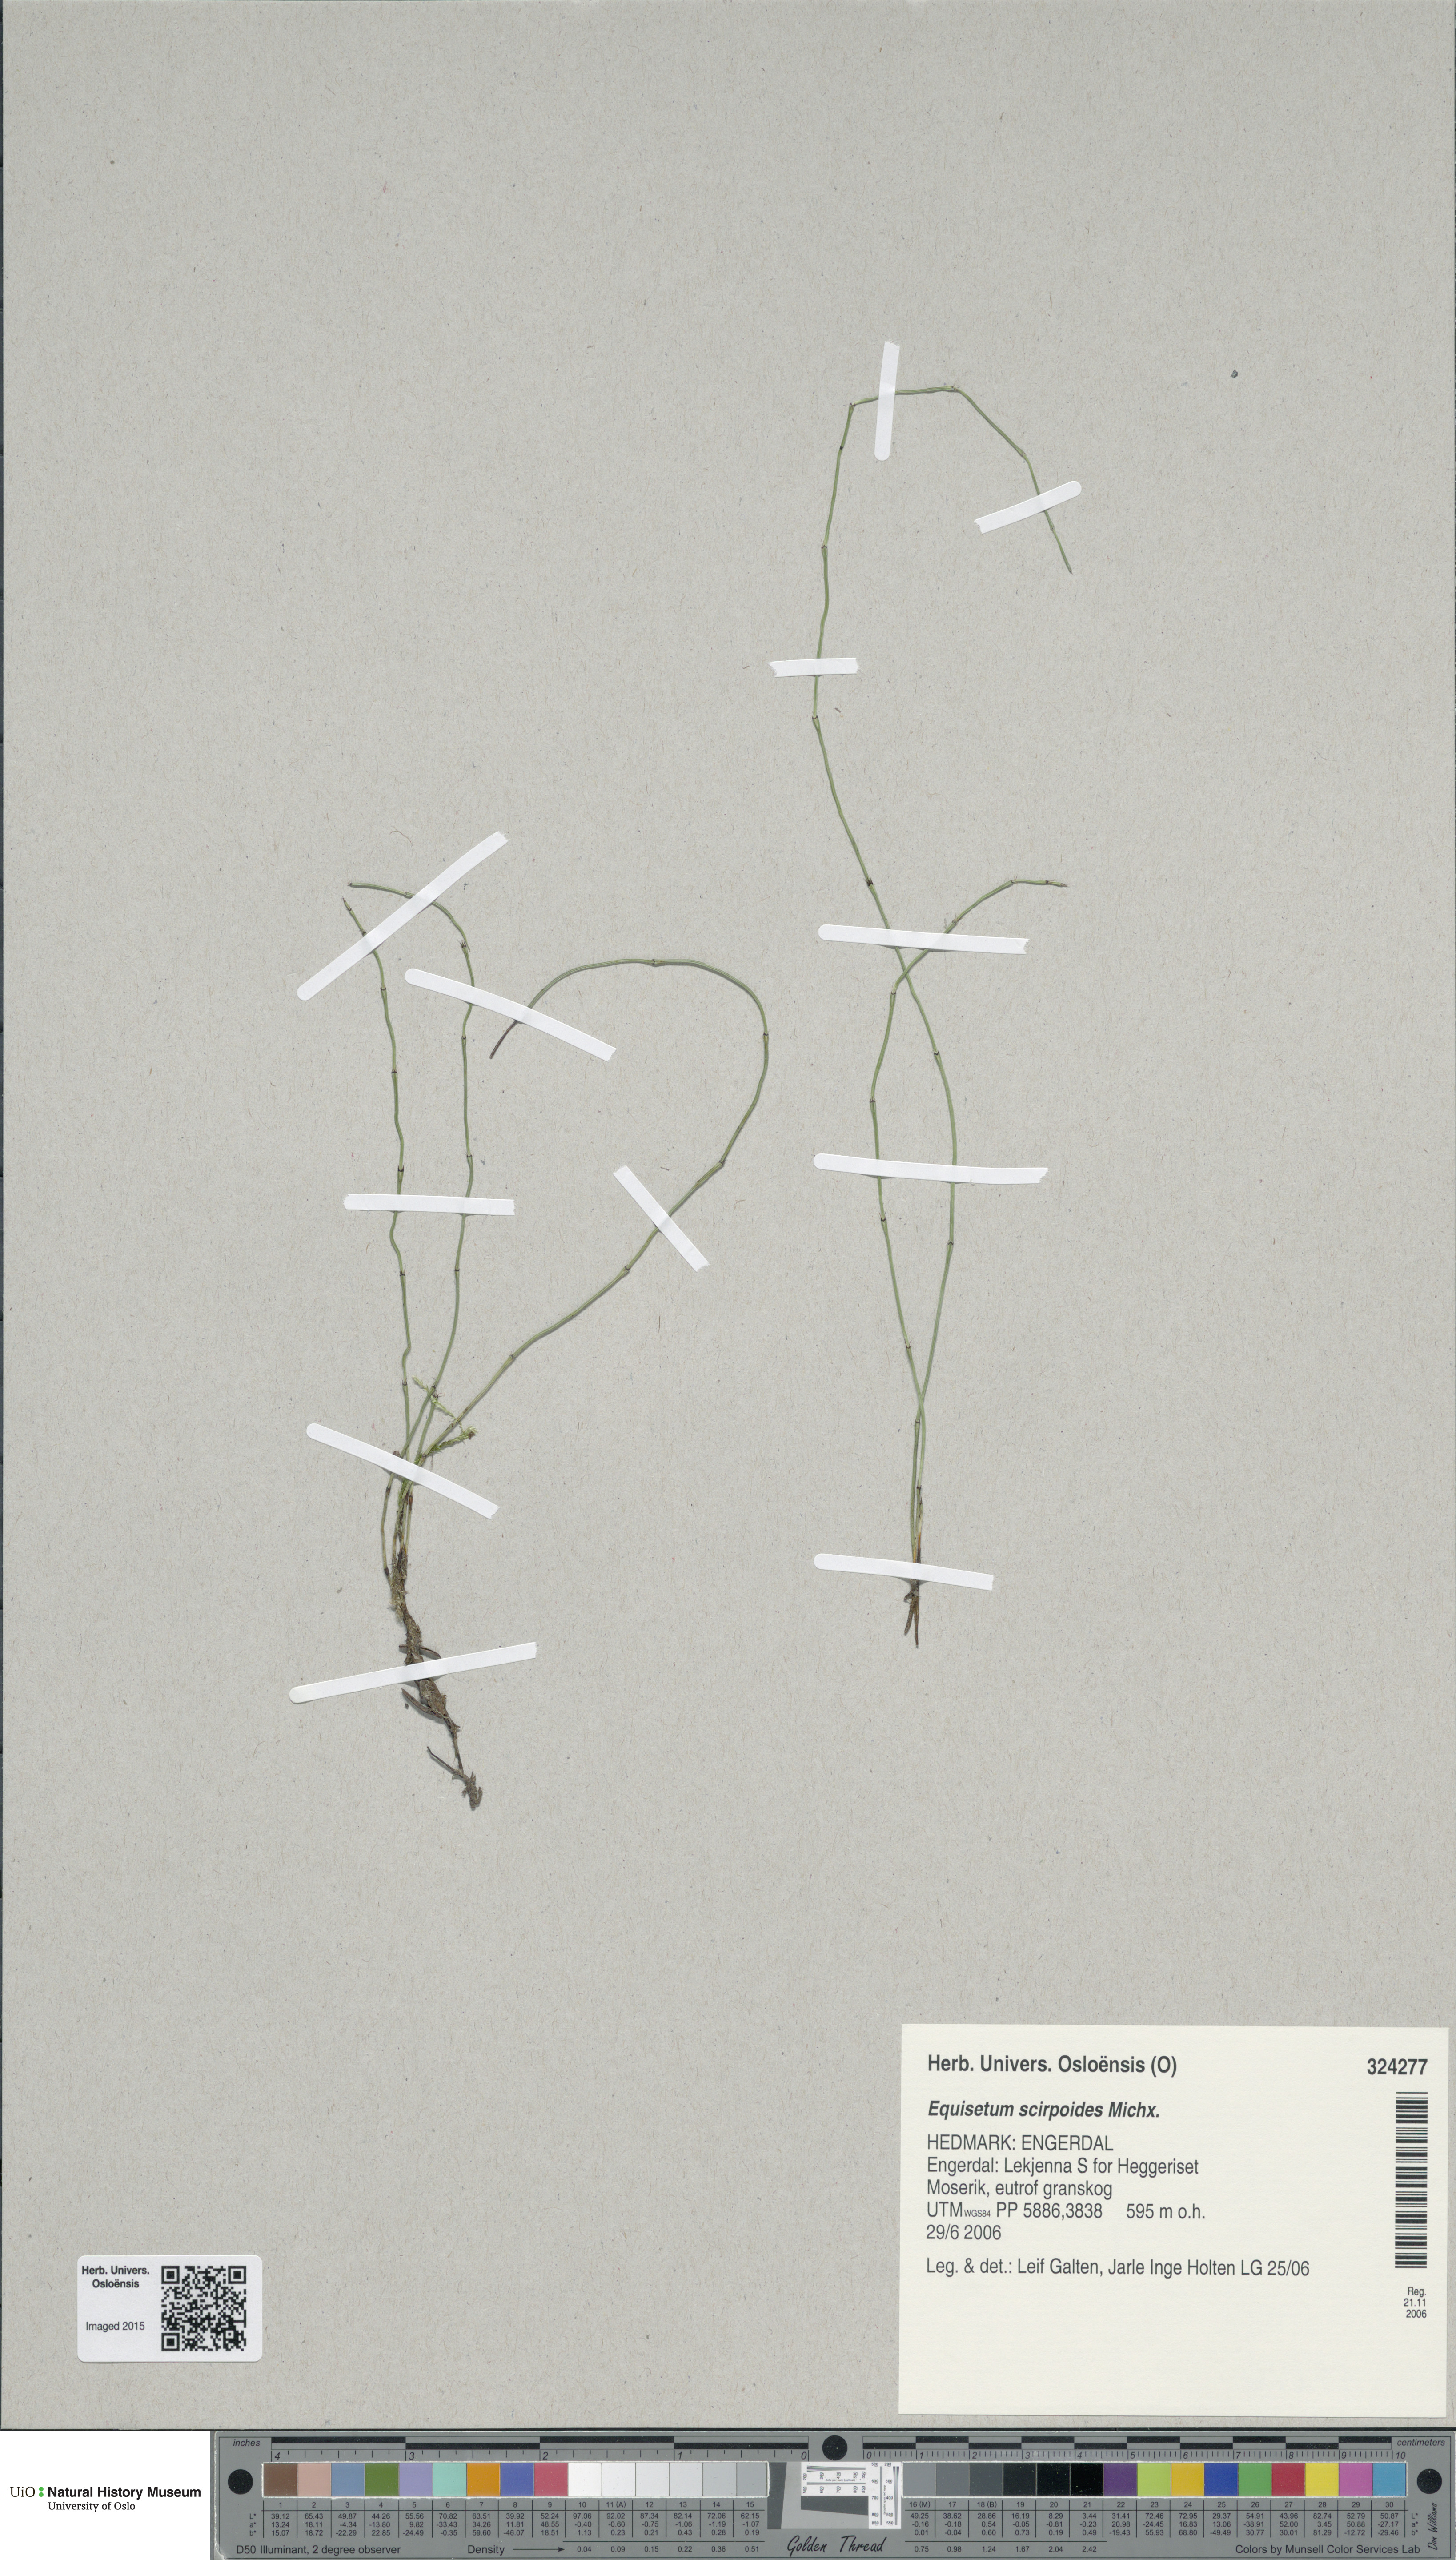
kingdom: Plantae
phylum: Tracheophyta
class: Polypodiopsida
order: Equisetales
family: Equisetaceae
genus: Equisetum
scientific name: Equisetum scirpoides
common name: Delicate horsetail
